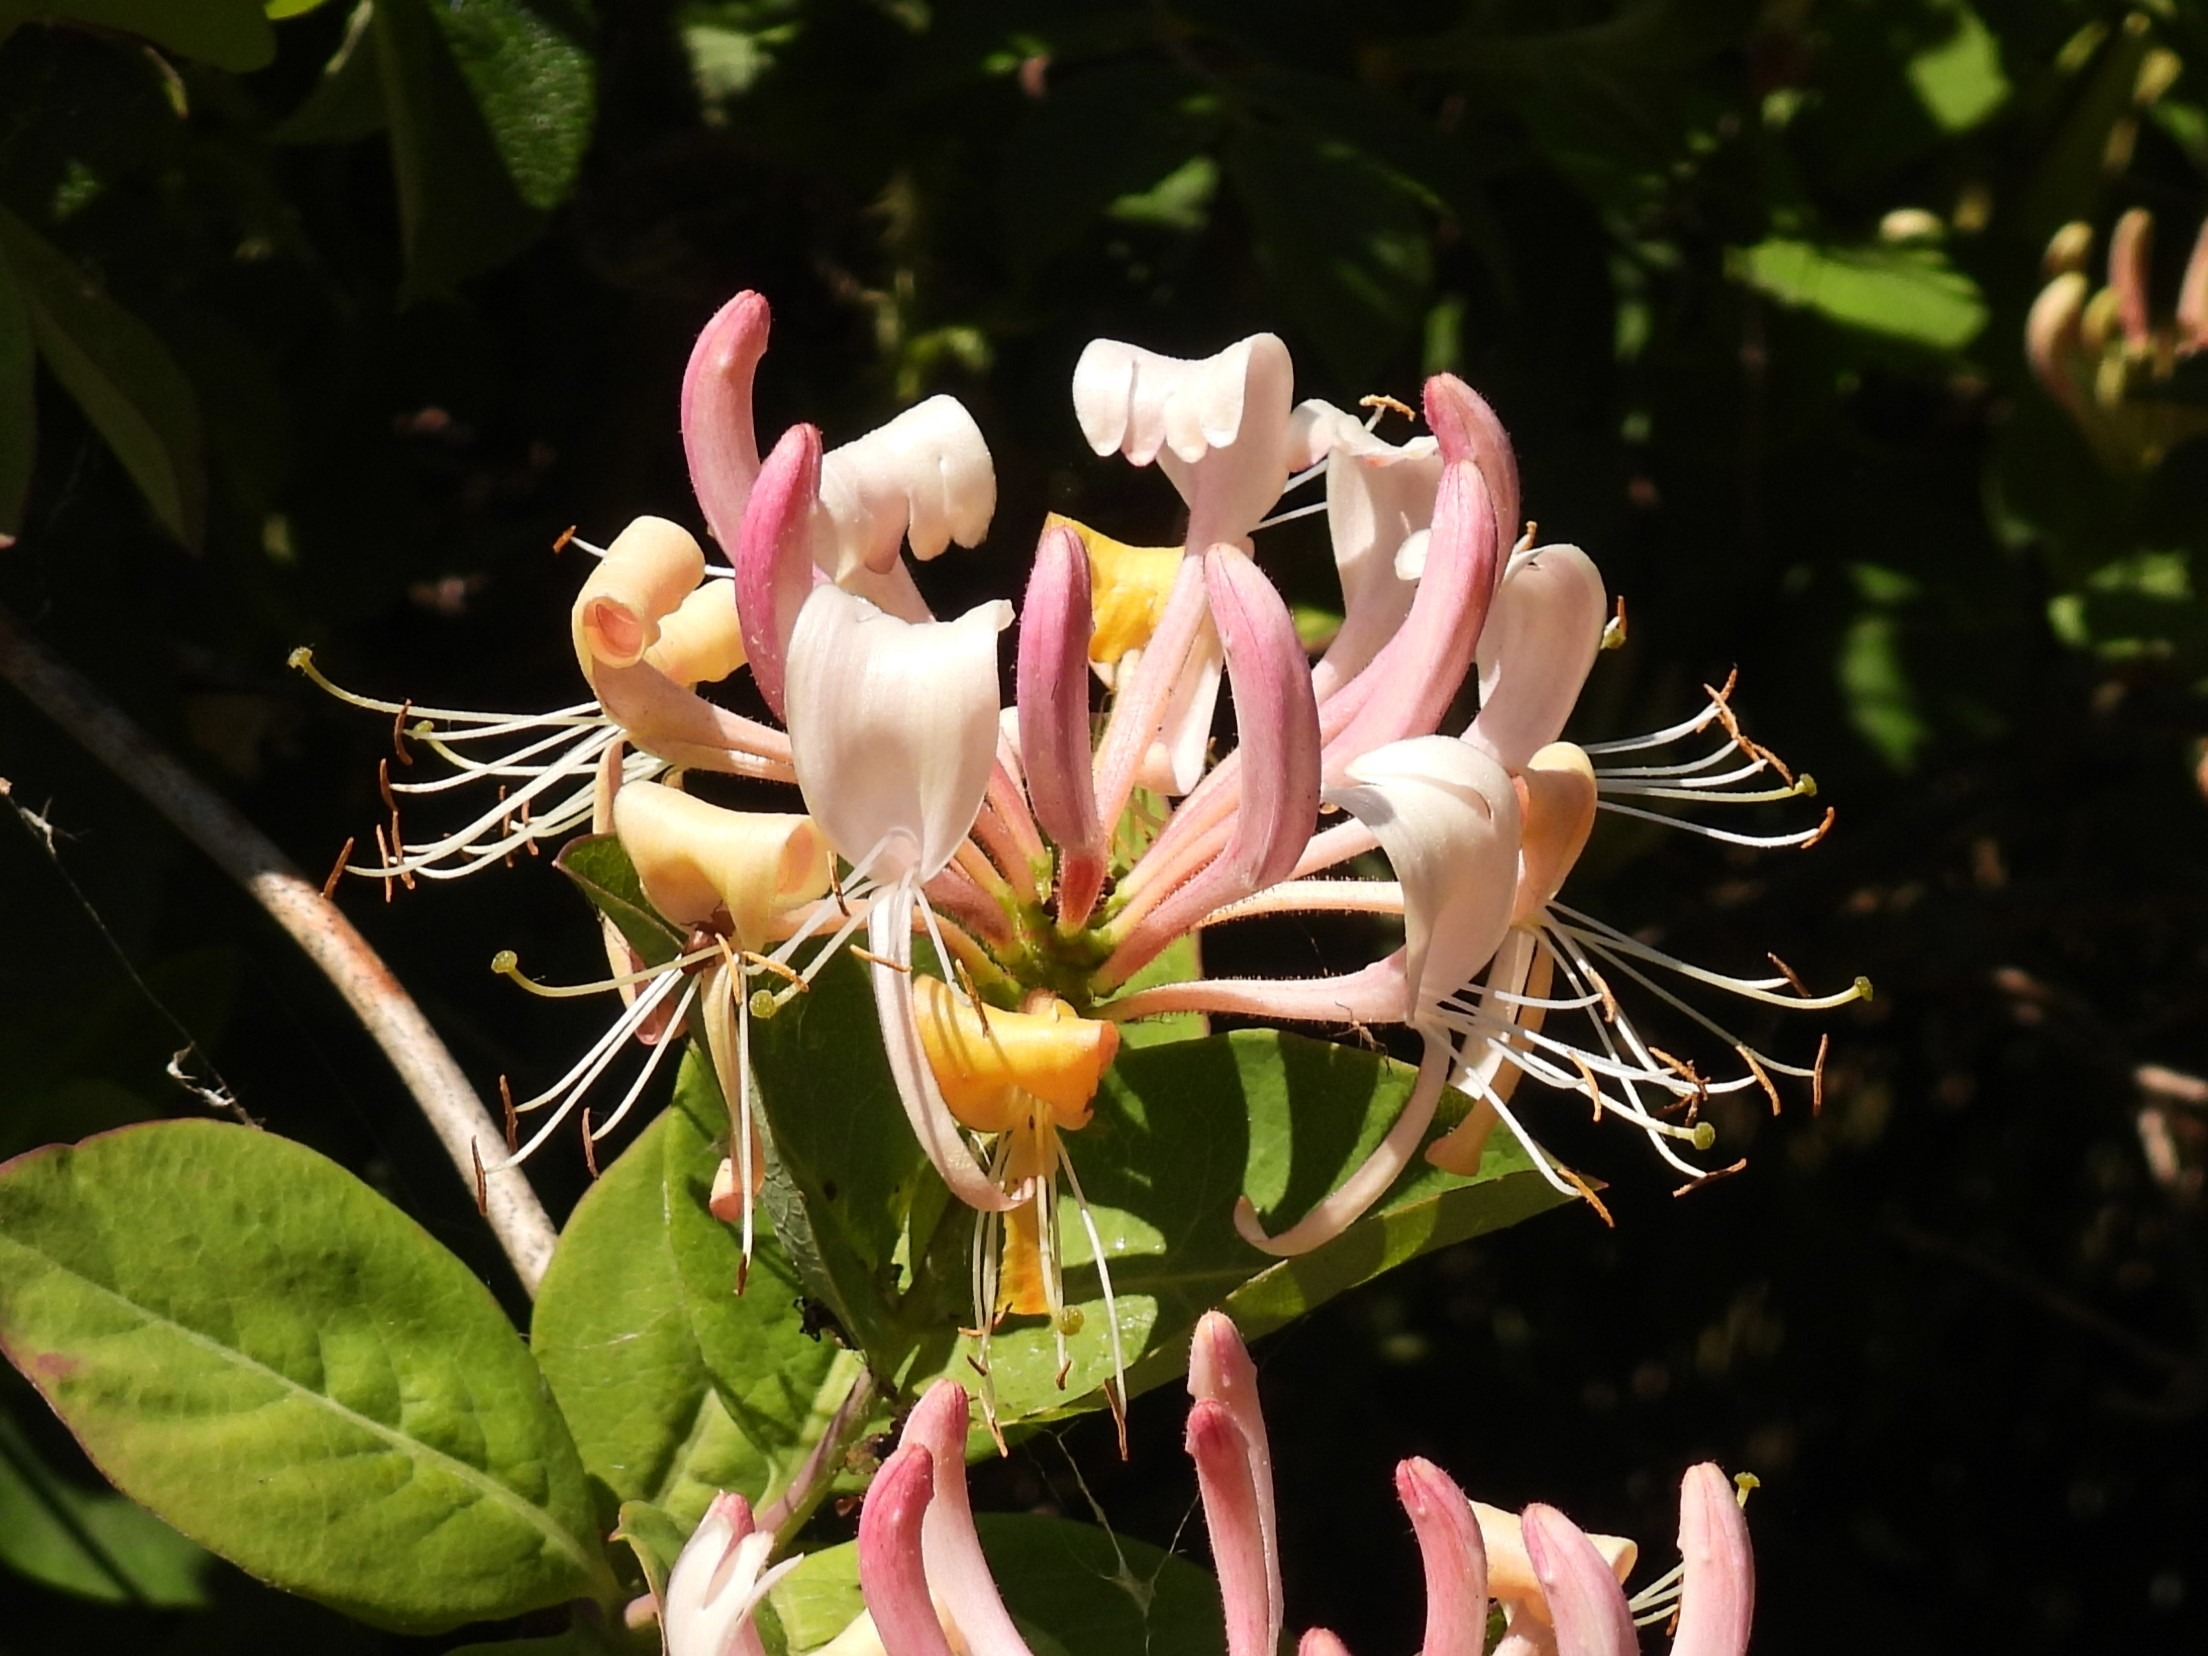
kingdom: Plantae
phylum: Tracheophyta
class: Magnoliopsida
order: Dipsacales
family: Caprifoliaceae
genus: Lonicera
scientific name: Lonicera periclymenum
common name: Almindelig gedeblad
